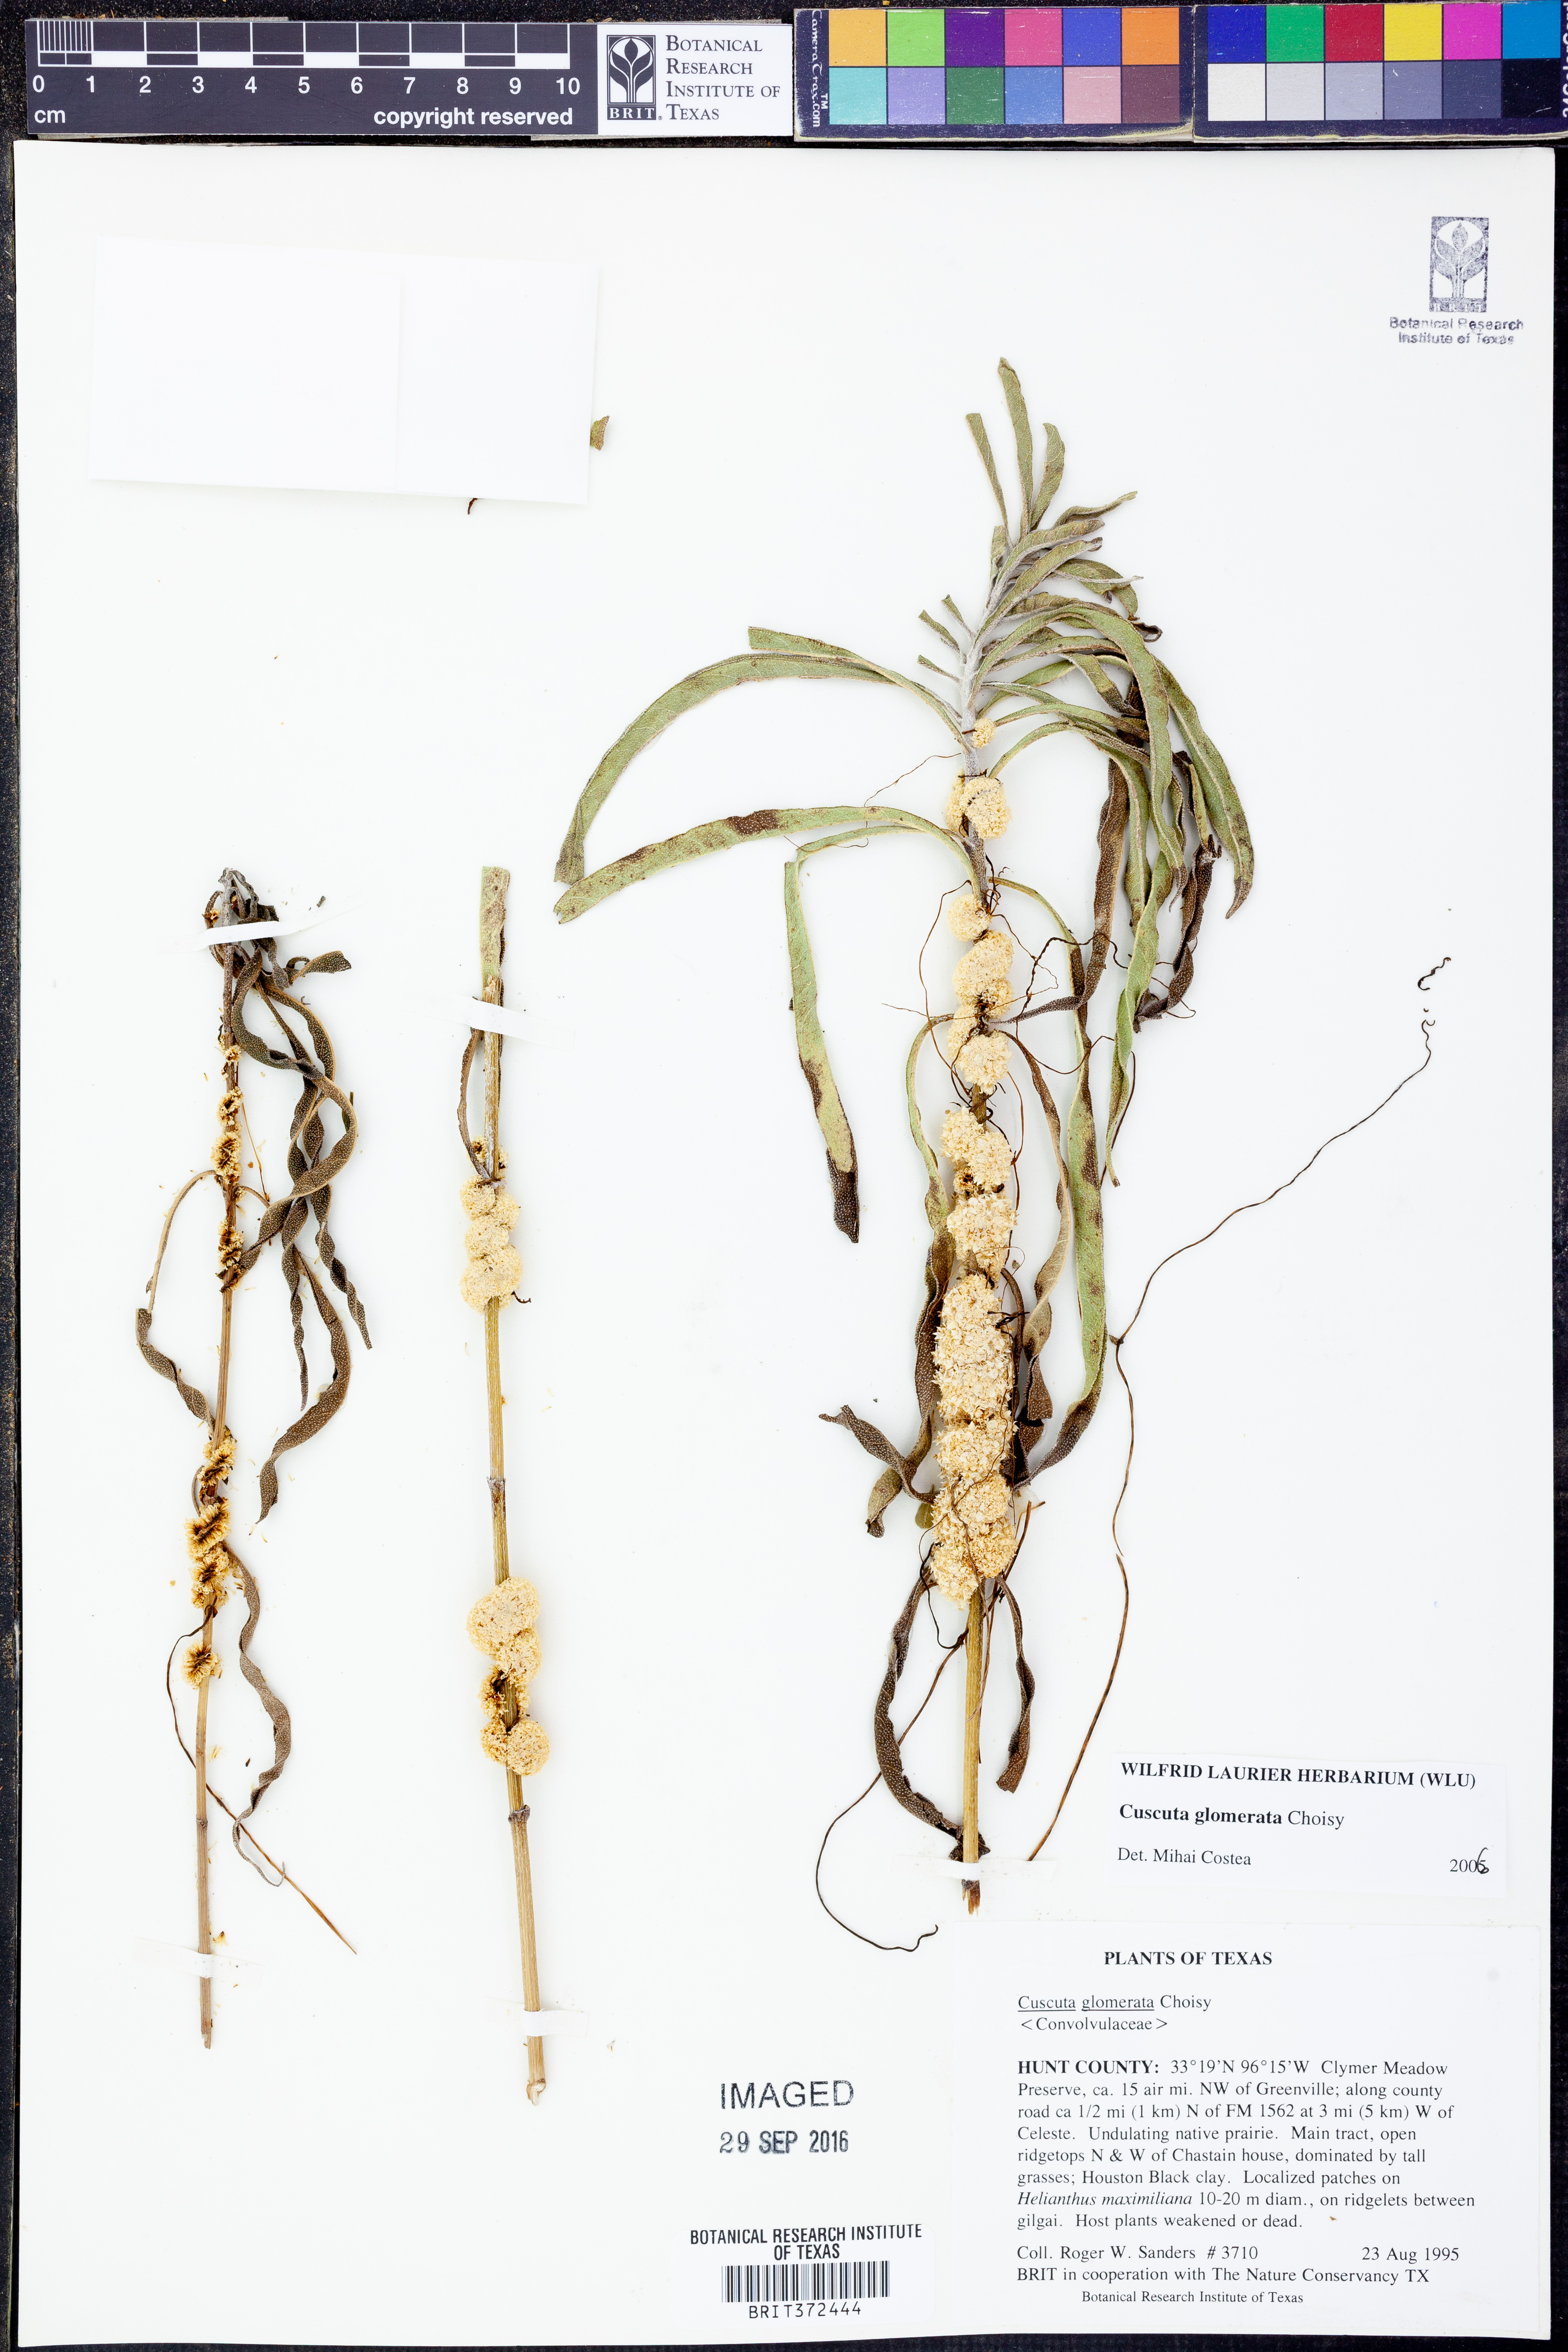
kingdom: Plantae
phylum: Tracheophyta
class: Magnoliopsida
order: Solanales
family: Convolvulaceae
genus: Cuscuta
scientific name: Cuscuta glomerata
